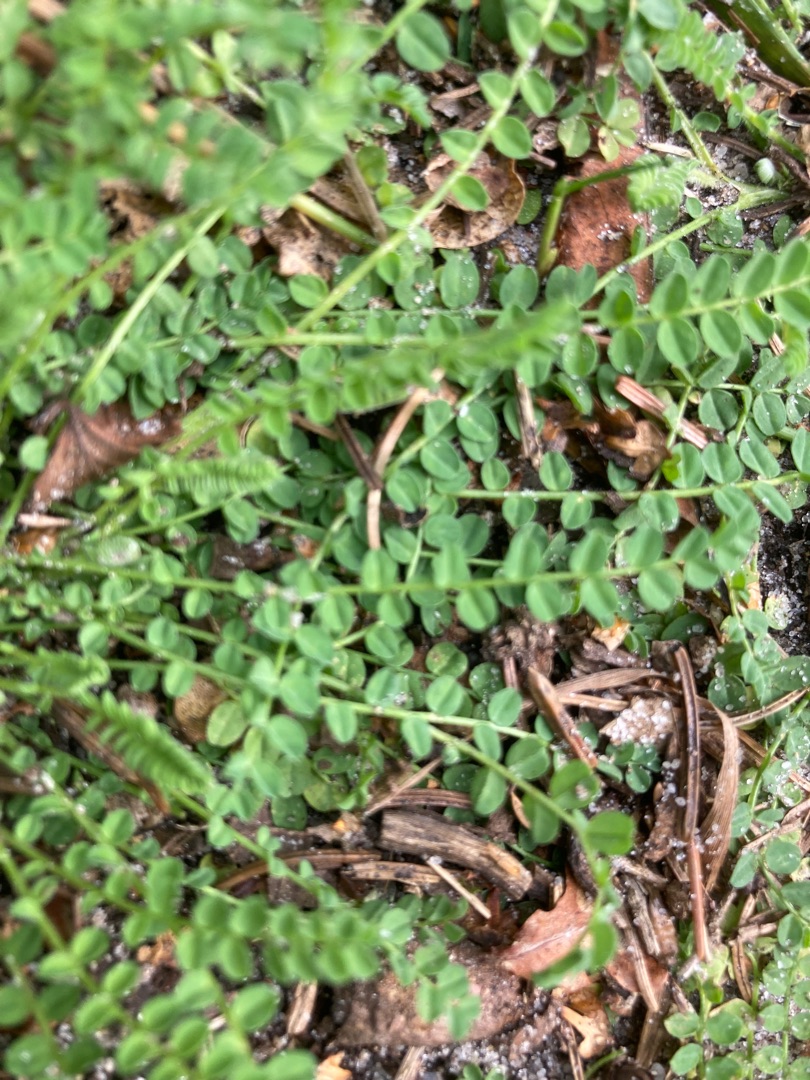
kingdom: Plantae
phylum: Tracheophyta
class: Magnoliopsida
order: Fabales
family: Fabaceae
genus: Ornithopus
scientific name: Ornithopus perpusillus
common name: Liden fugleklo
